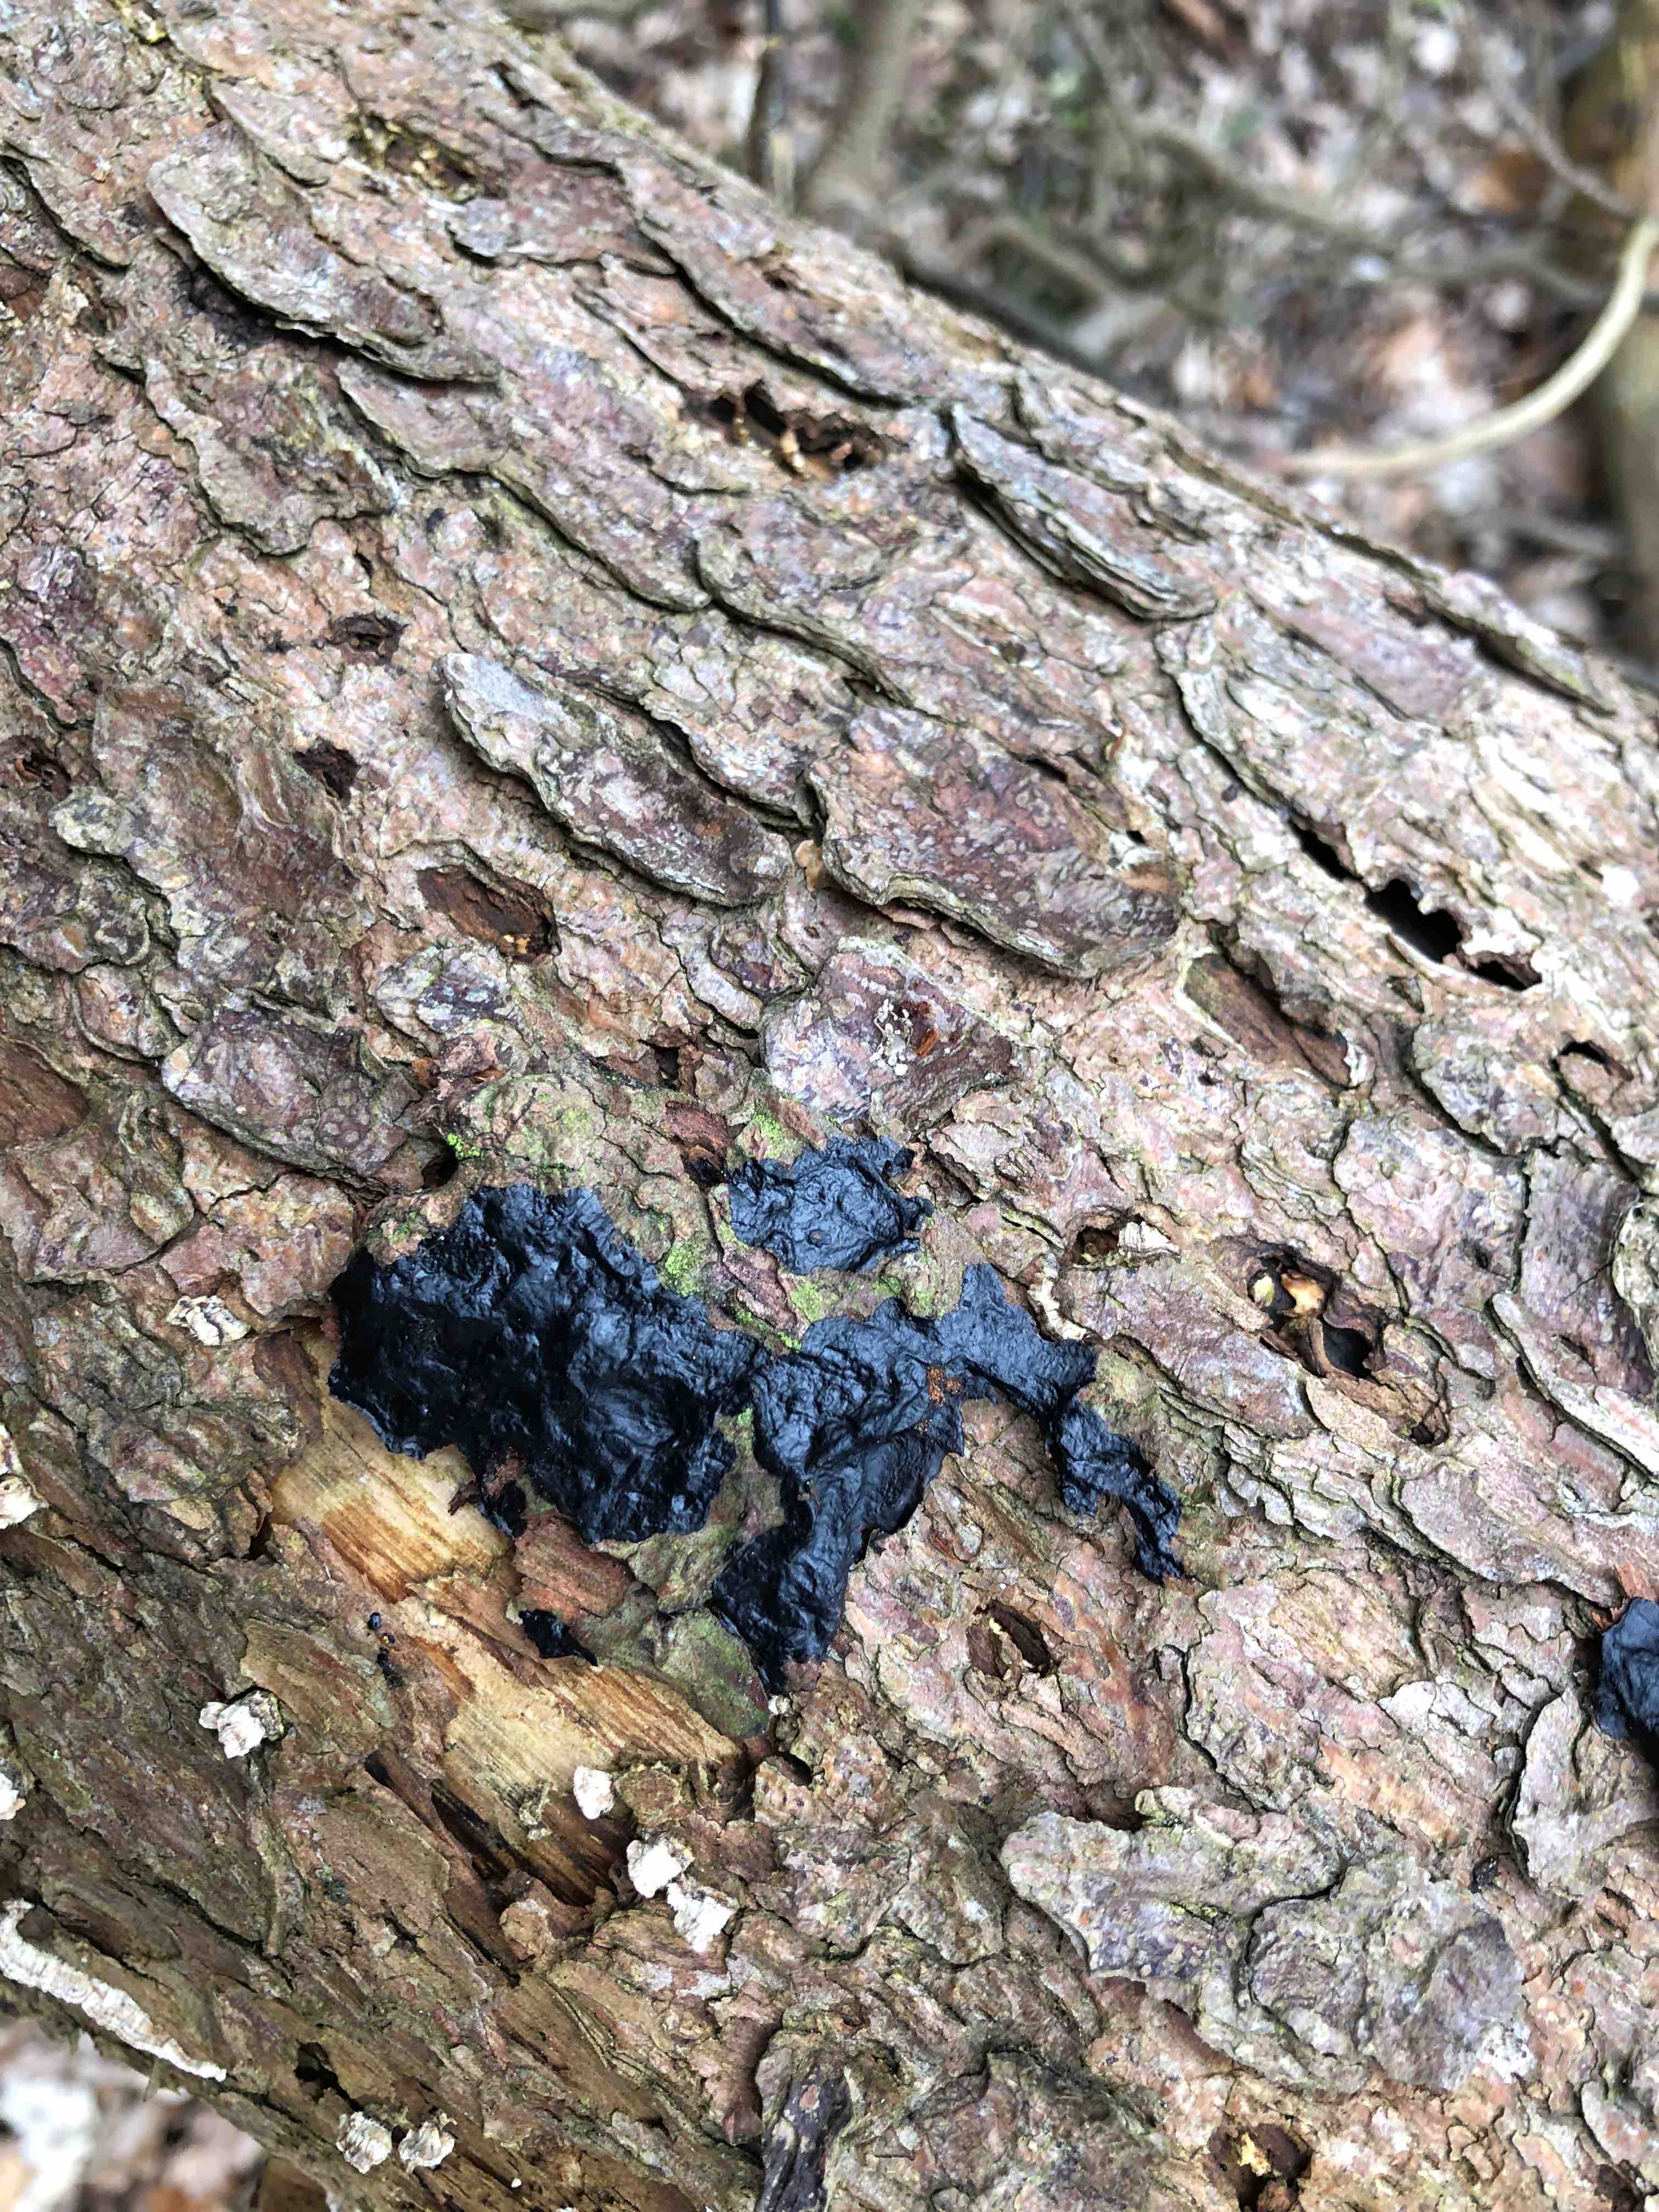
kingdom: Fungi
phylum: Basidiomycota
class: Agaricomycetes
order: Auriculariales
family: Auriculariaceae
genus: Exidia
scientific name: Exidia pithya
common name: gran-bævretop
